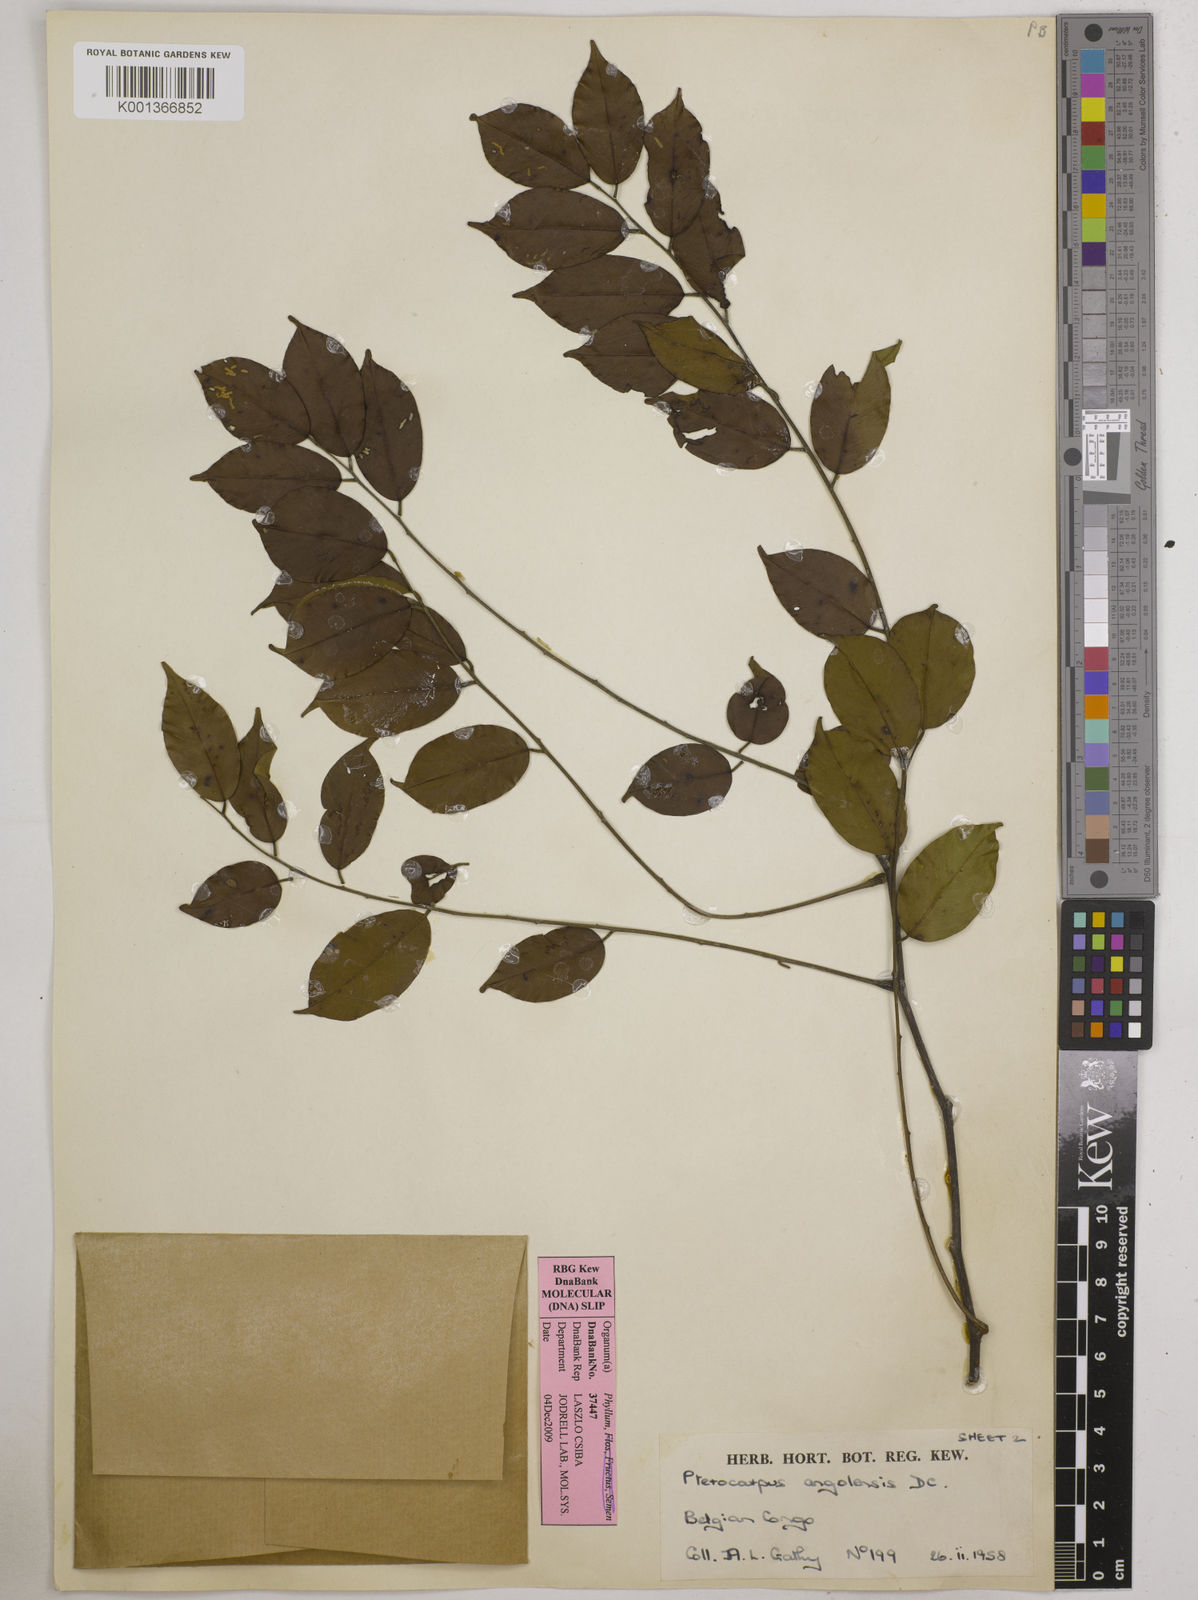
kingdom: Plantae
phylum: Tracheophyta
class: Magnoliopsida
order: Fabales
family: Fabaceae
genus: Pterocarpus
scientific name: Pterocarpus angolensis
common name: Bloodwood tree
